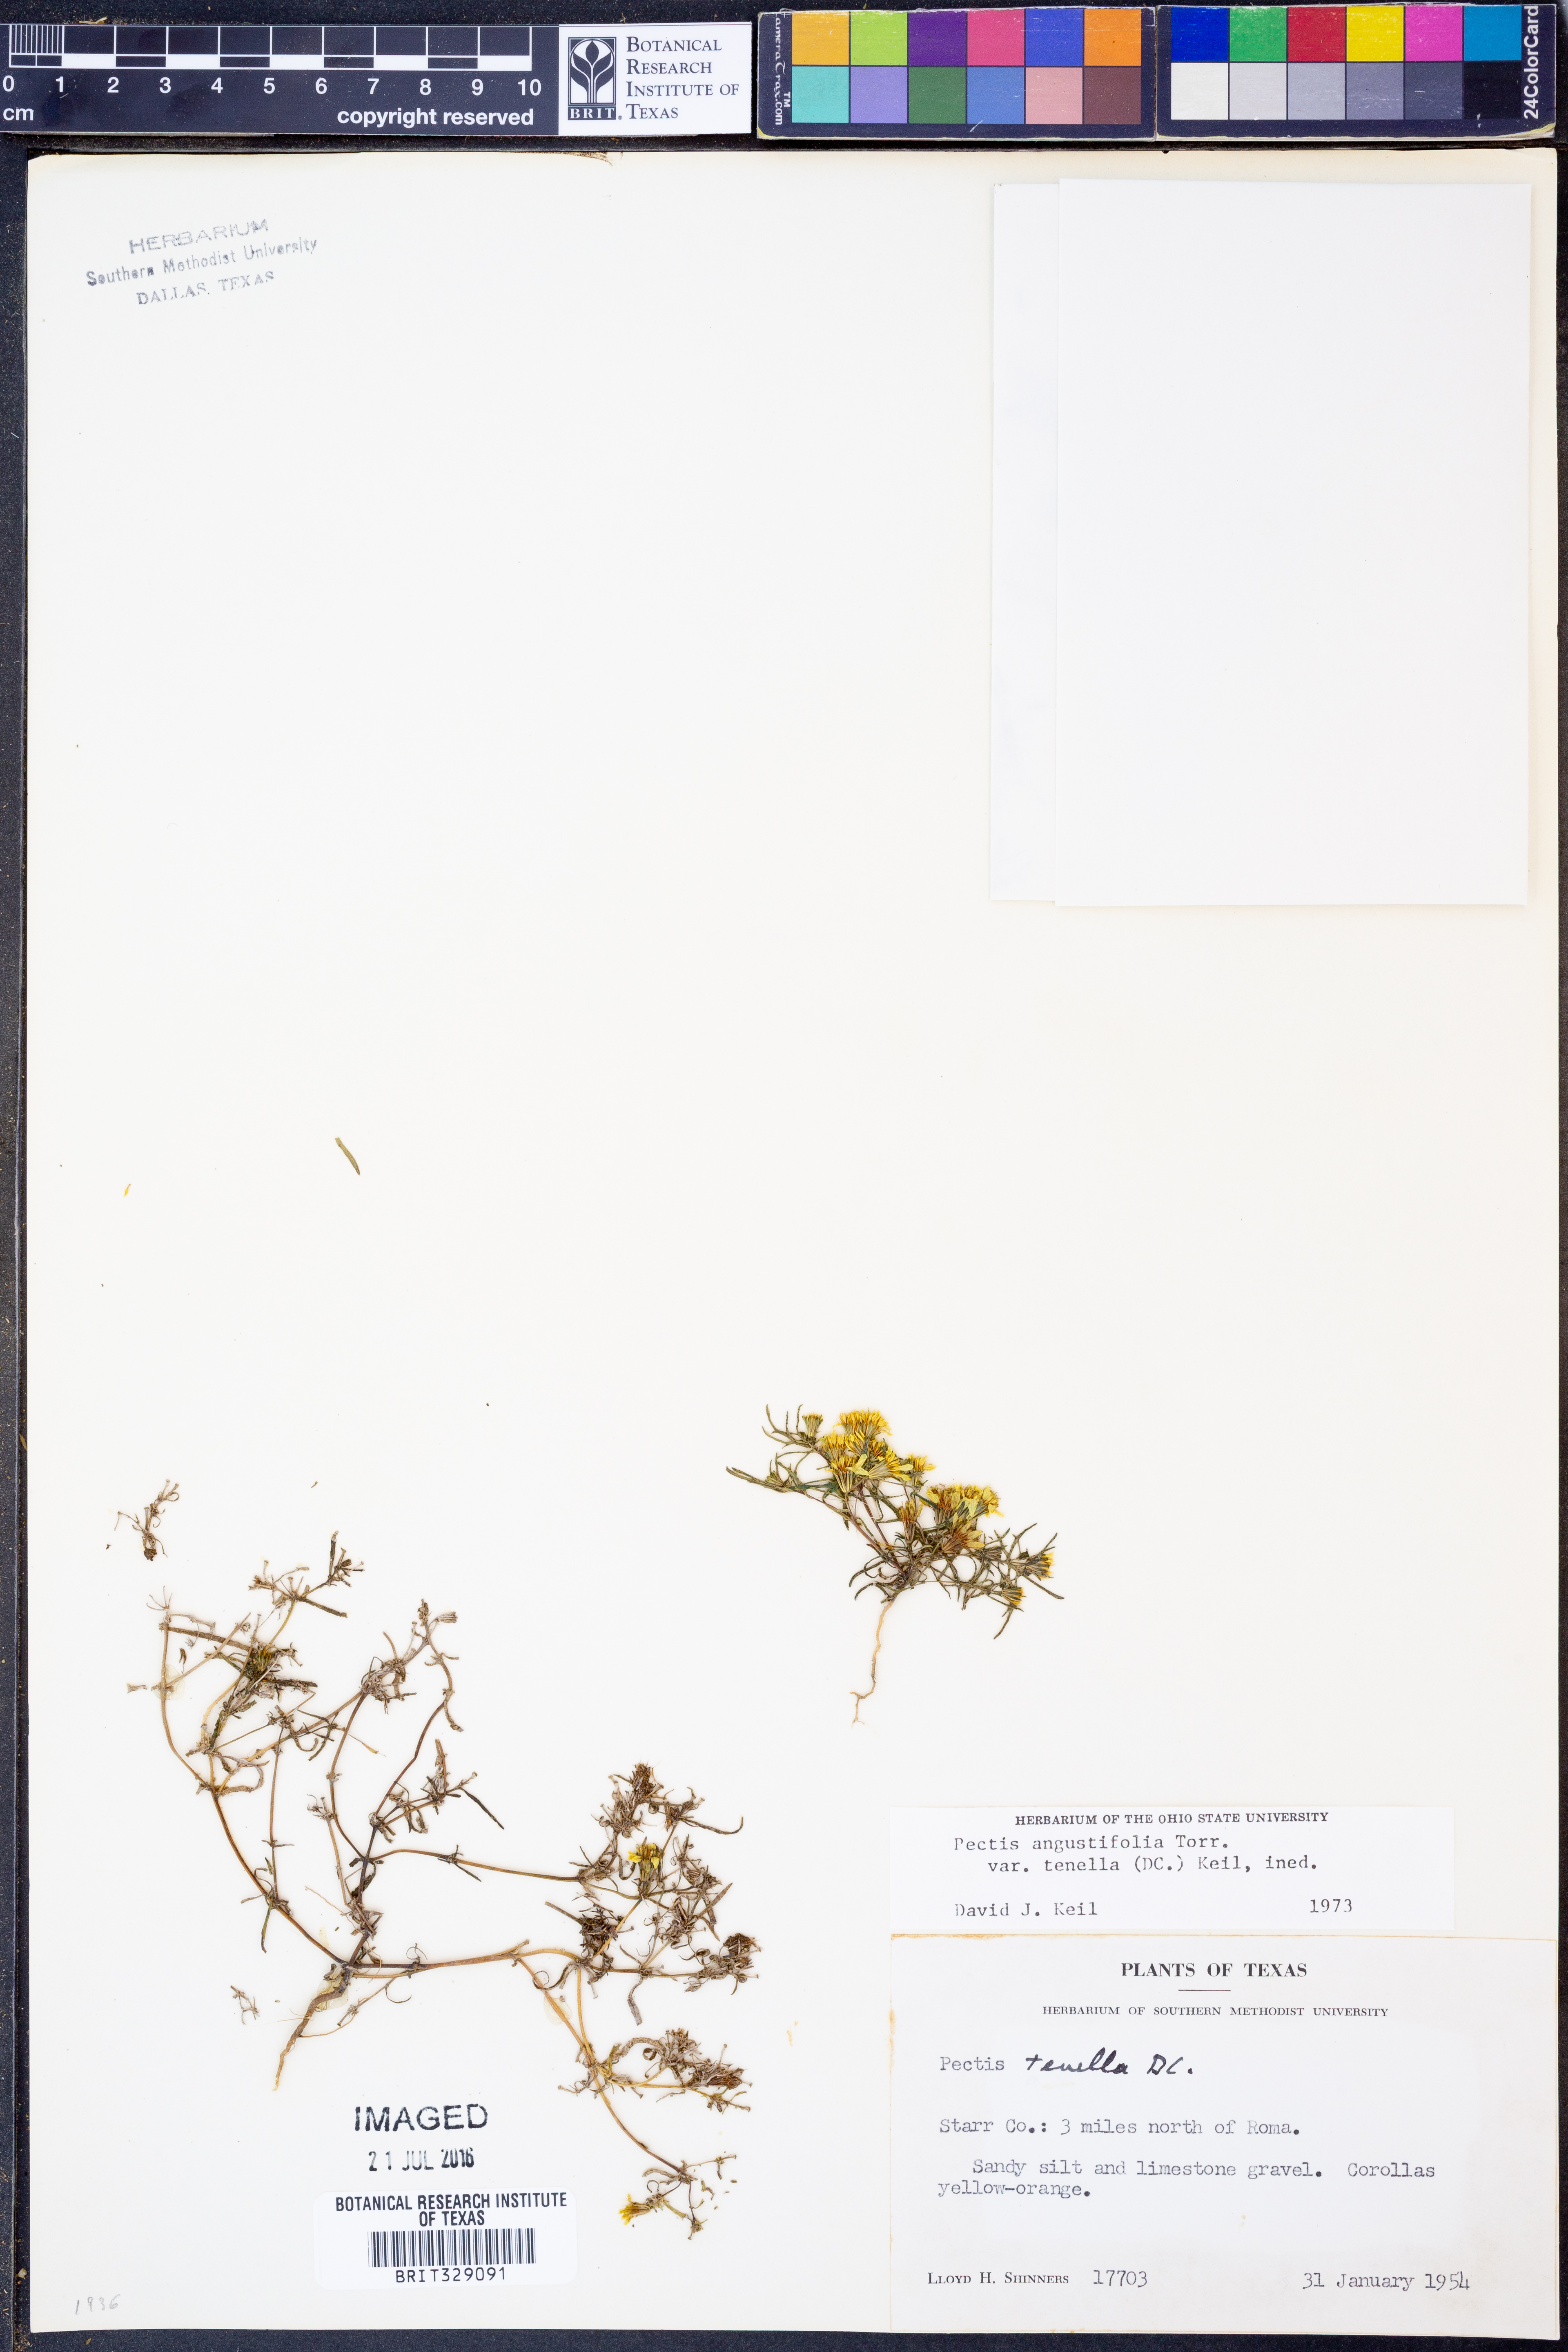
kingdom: Plantae
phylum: Tracheophyta
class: Magnoliopsida
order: Asterales
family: Asteraceae
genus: Pectis
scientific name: Pectis angustifolia
